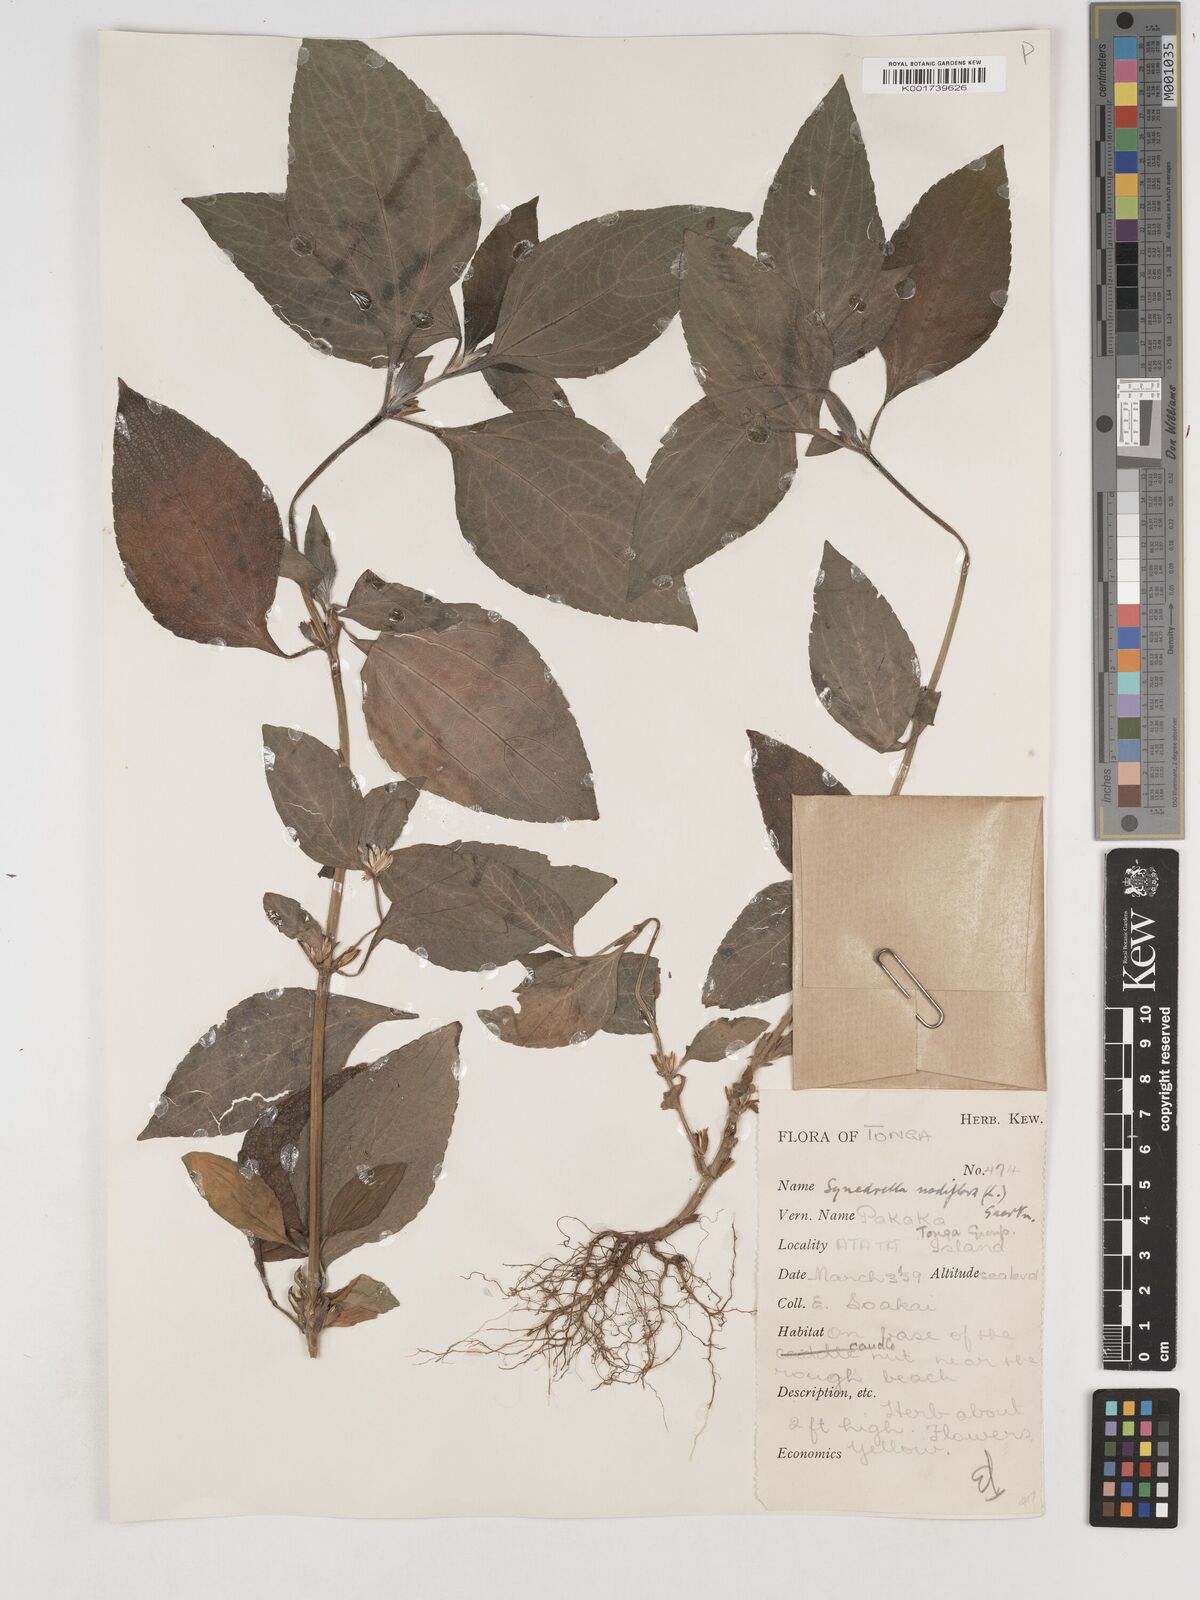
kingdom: Plantae
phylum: Tracheophyta
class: Magnoliopsida
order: Asterales
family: Asteraceae
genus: Synedrella
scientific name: Synedrella nodiflora
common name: Nodeweed
